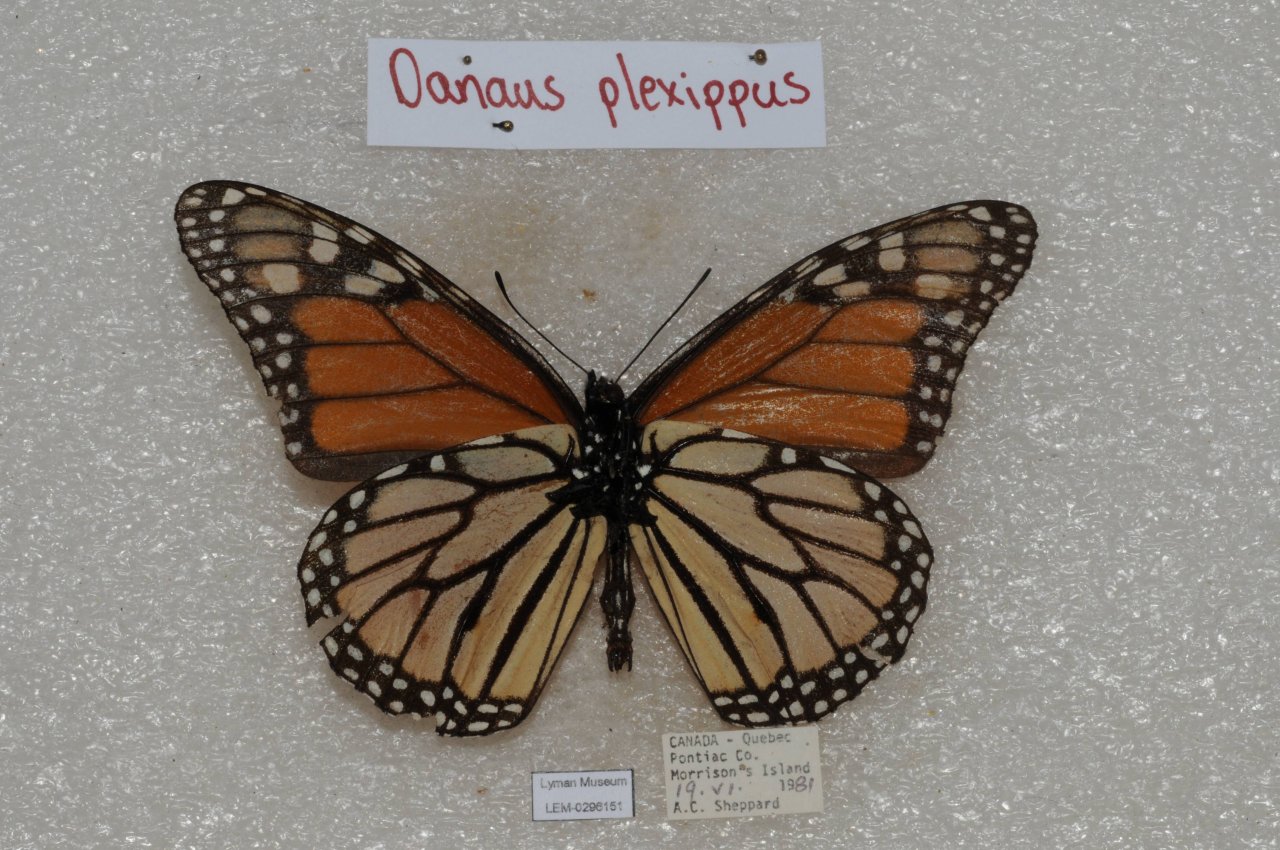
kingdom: Animalia
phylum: Arthropoda
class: Insecta
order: Lepidoptera
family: Nymphalidae
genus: Danaus
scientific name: Danaus plexippus
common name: Monarch
